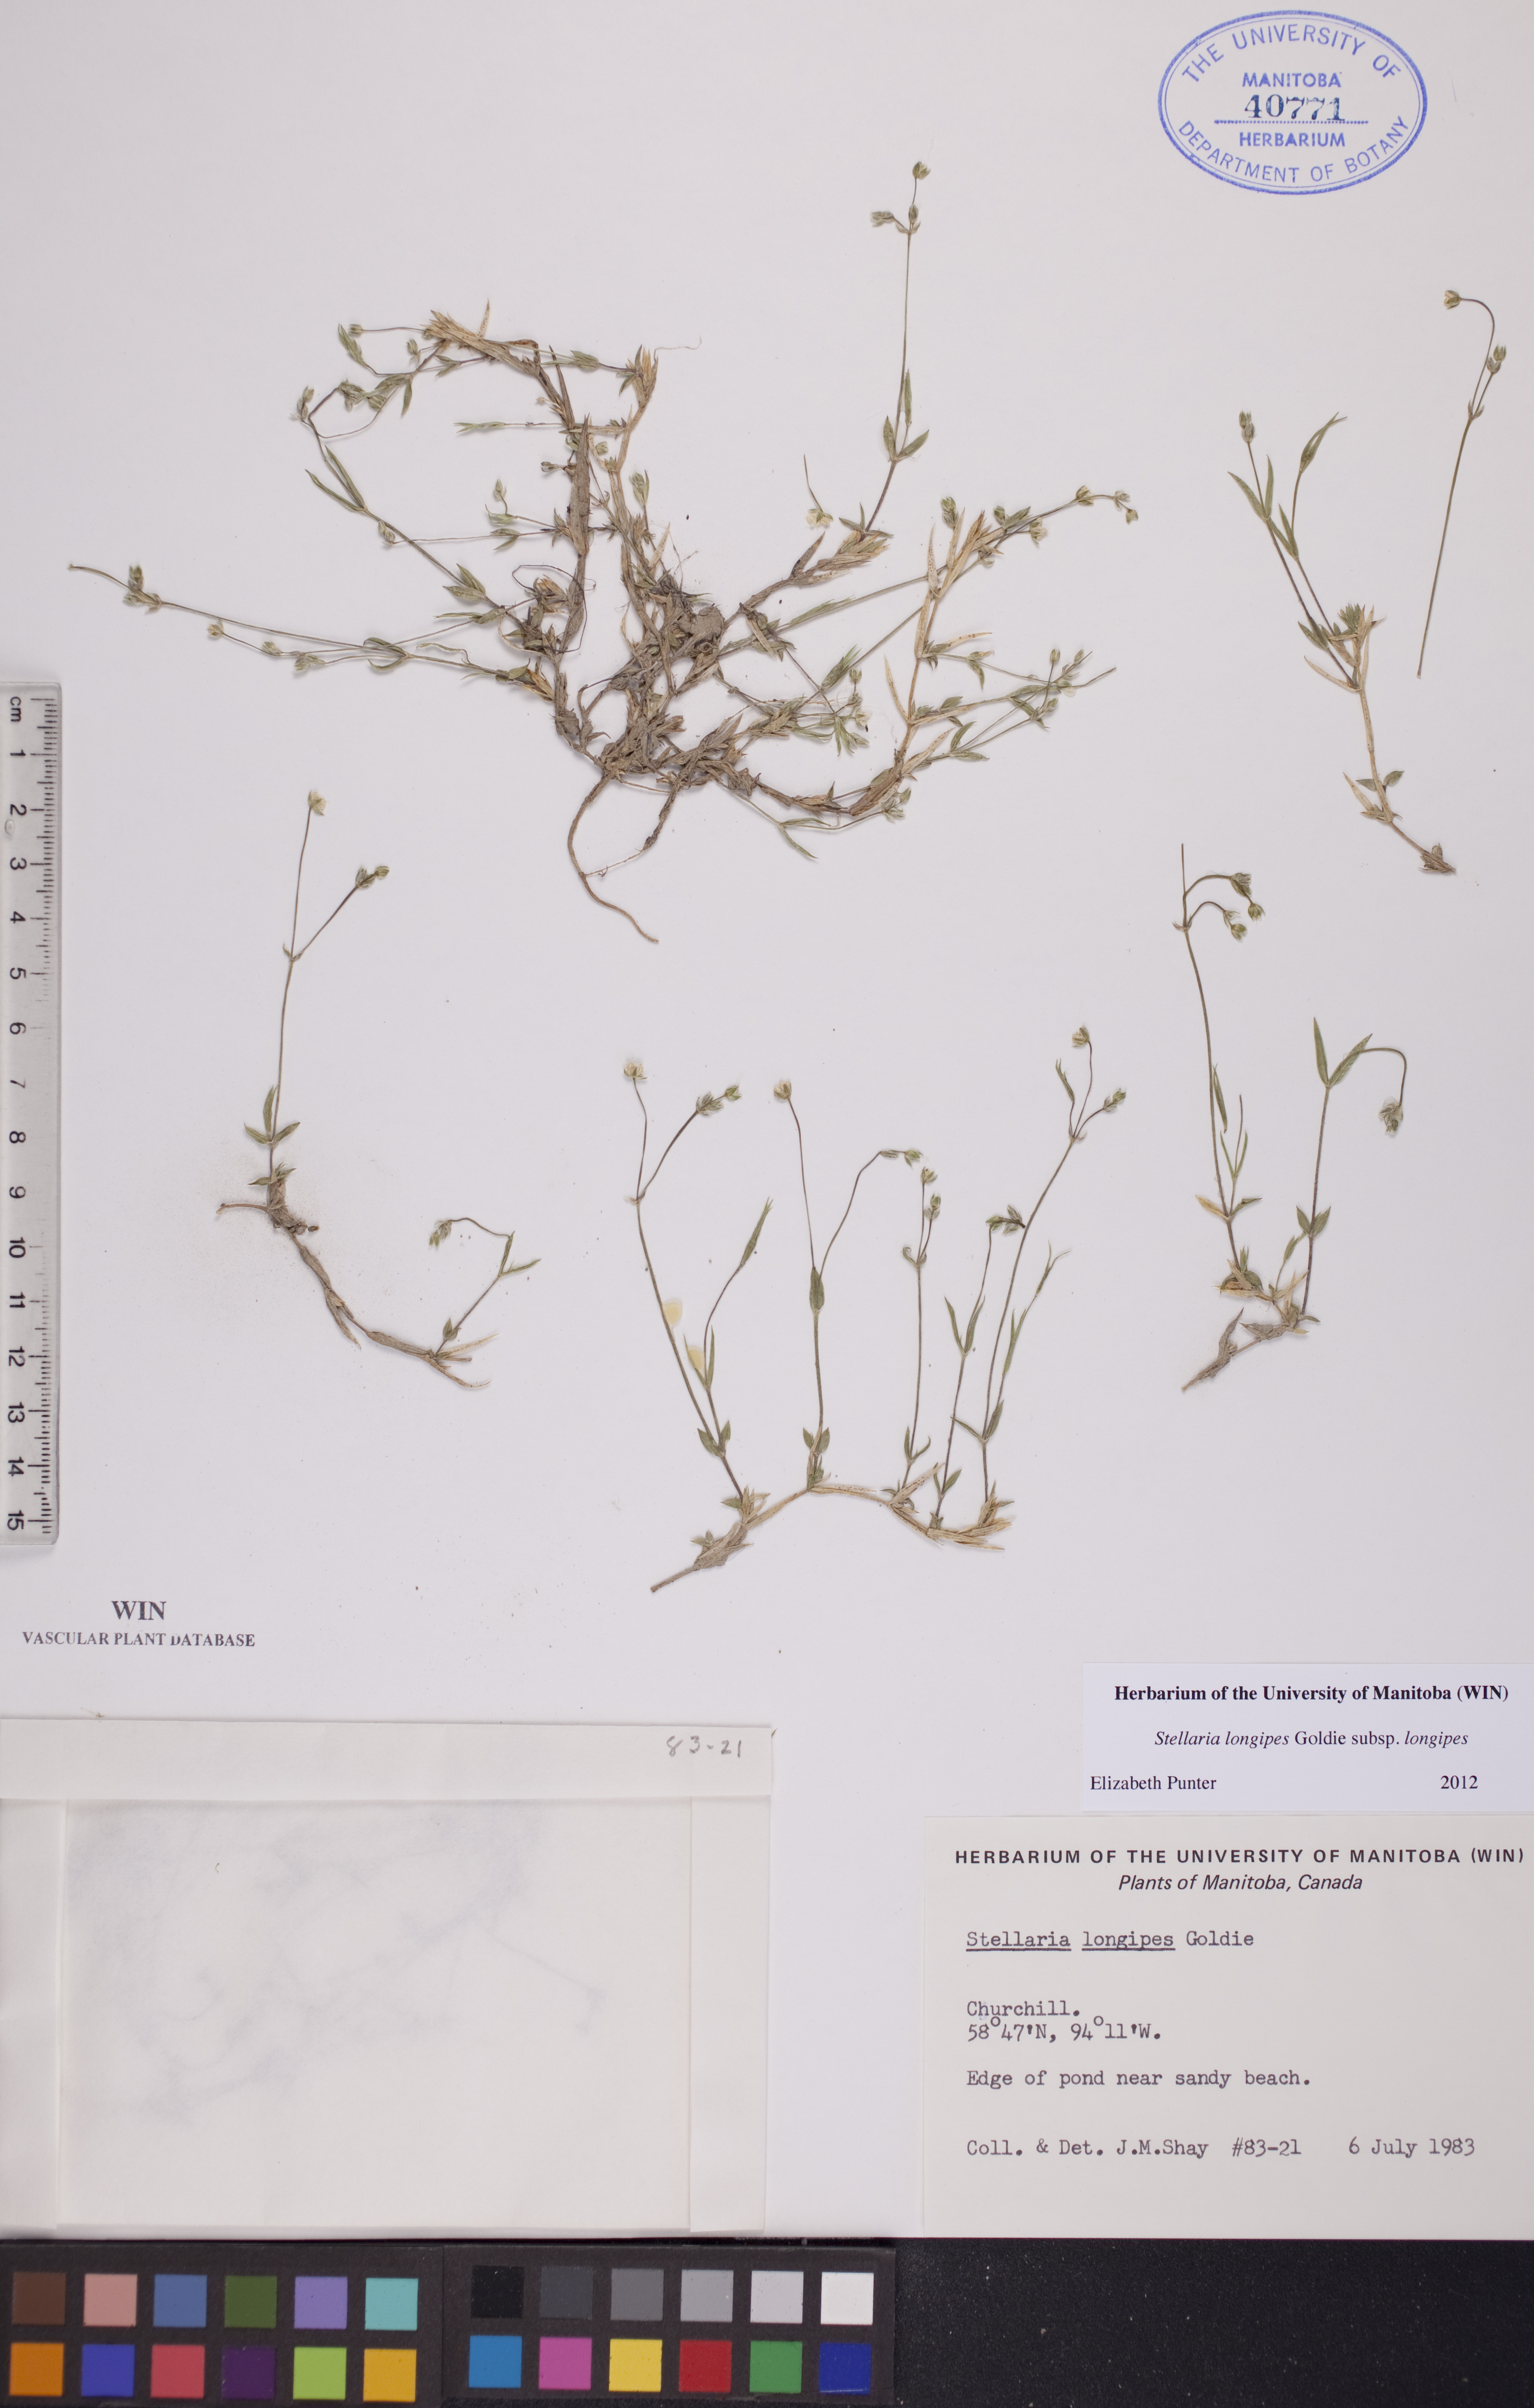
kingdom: Plantae
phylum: Tracheophyta
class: Magnoliopsida
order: Caryophyllales
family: Caryophyllaceae
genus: Stellaria
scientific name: Stellaria longipes
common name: Goldie's starwort
